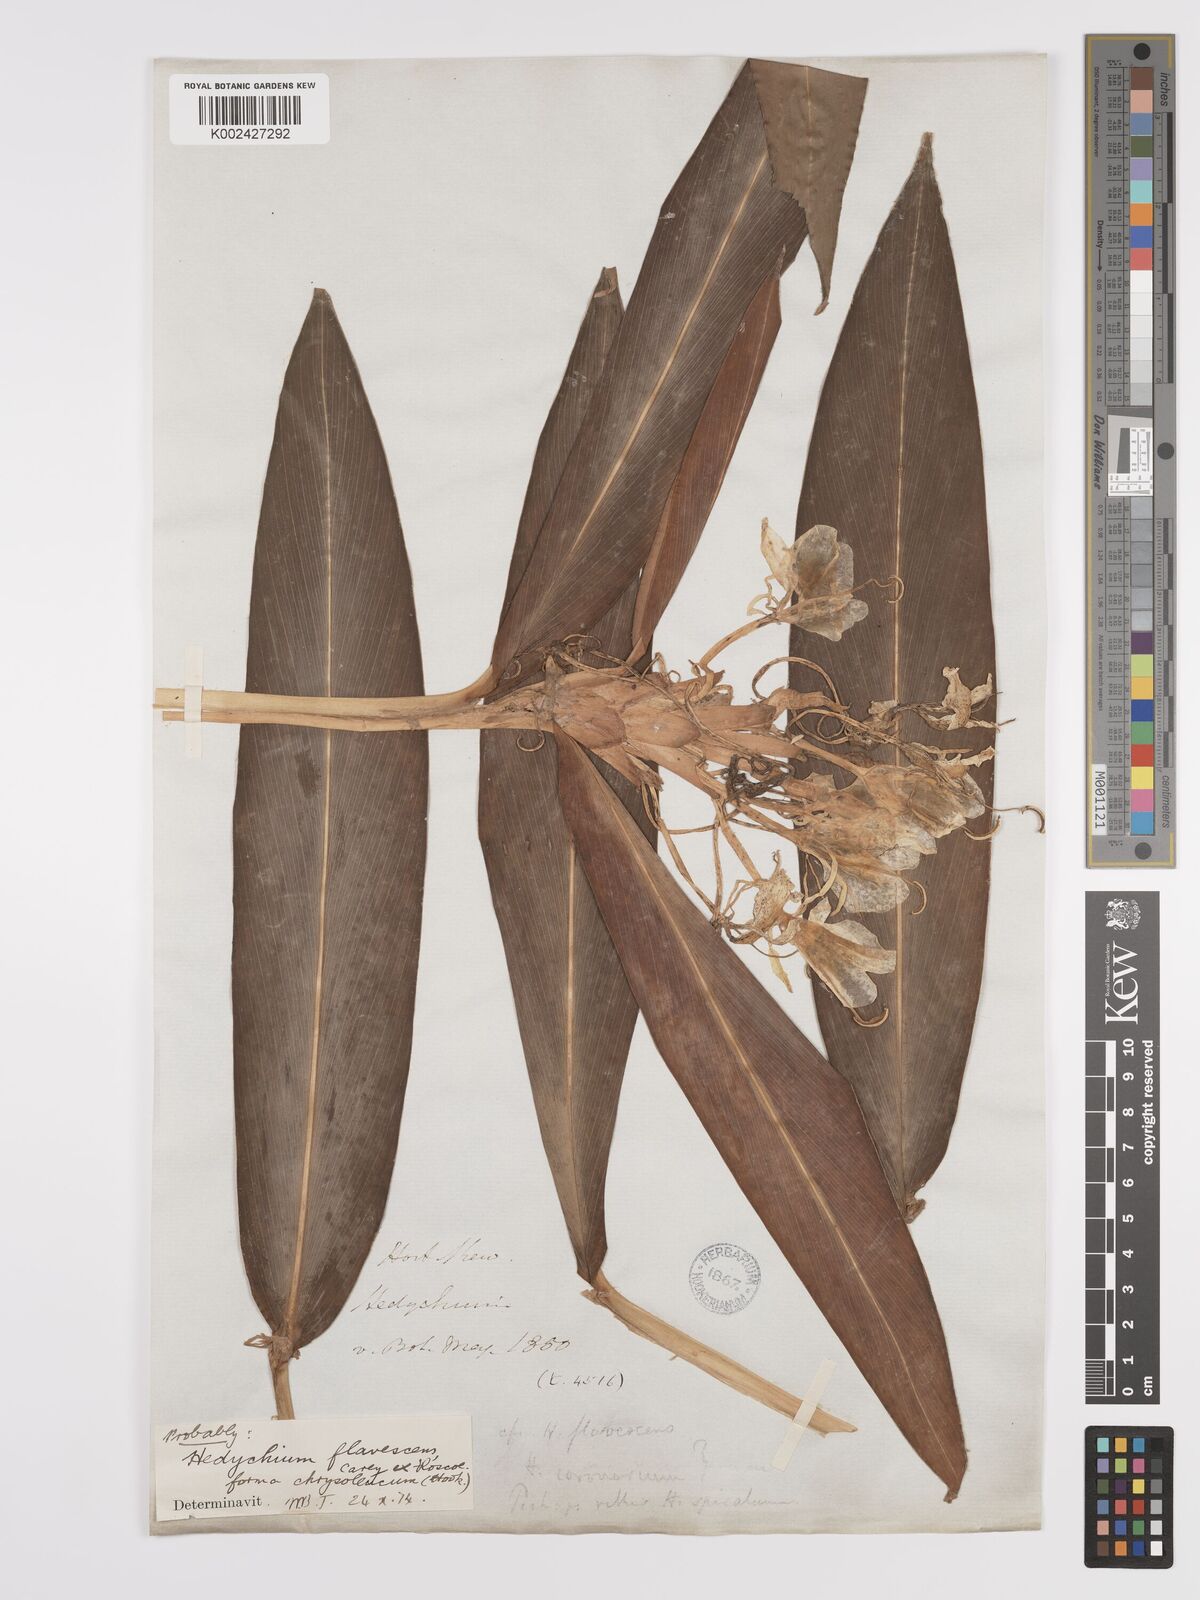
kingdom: Plantae
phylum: Tracheophyta
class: Liliopsida
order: Zingiberales
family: Zingiberaceae
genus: Hedychium
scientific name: Hedychium coronarium
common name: White garland-lily
